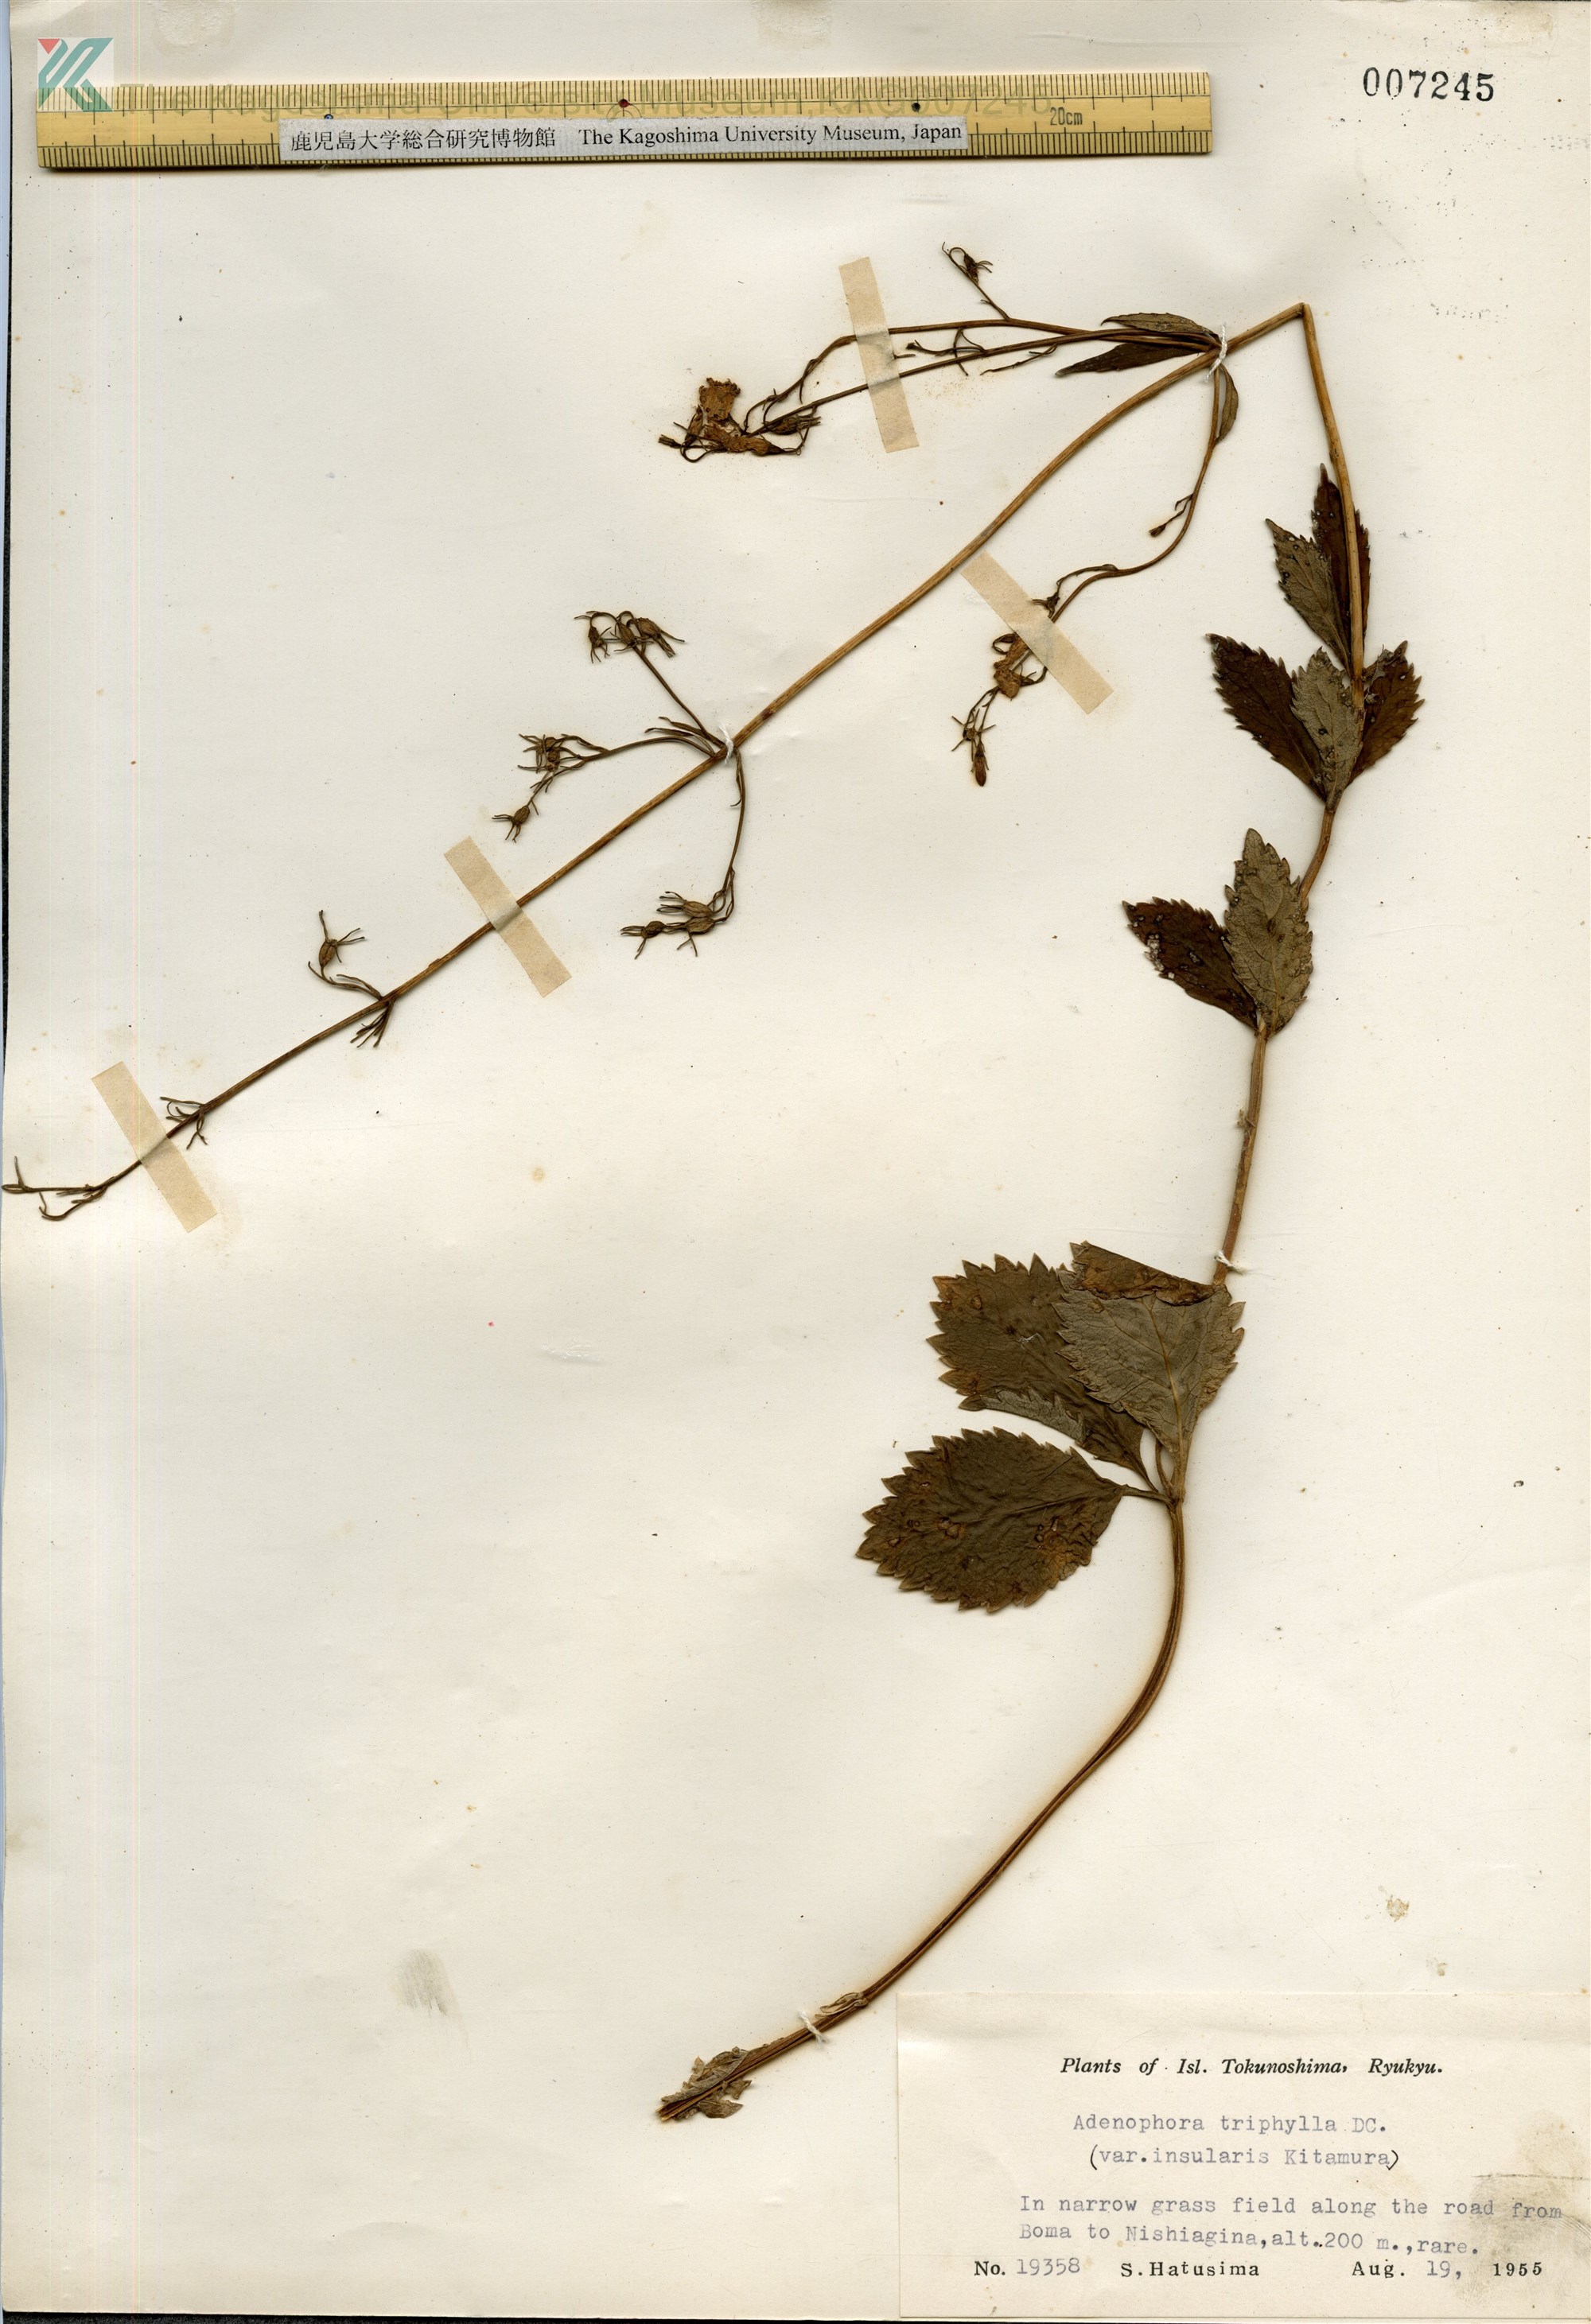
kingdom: Plantae
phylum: Tracheophyta
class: Magnoliopsida
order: Asterales
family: Campanulaceae
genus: Adenophora
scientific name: Adenophora tashiroi
